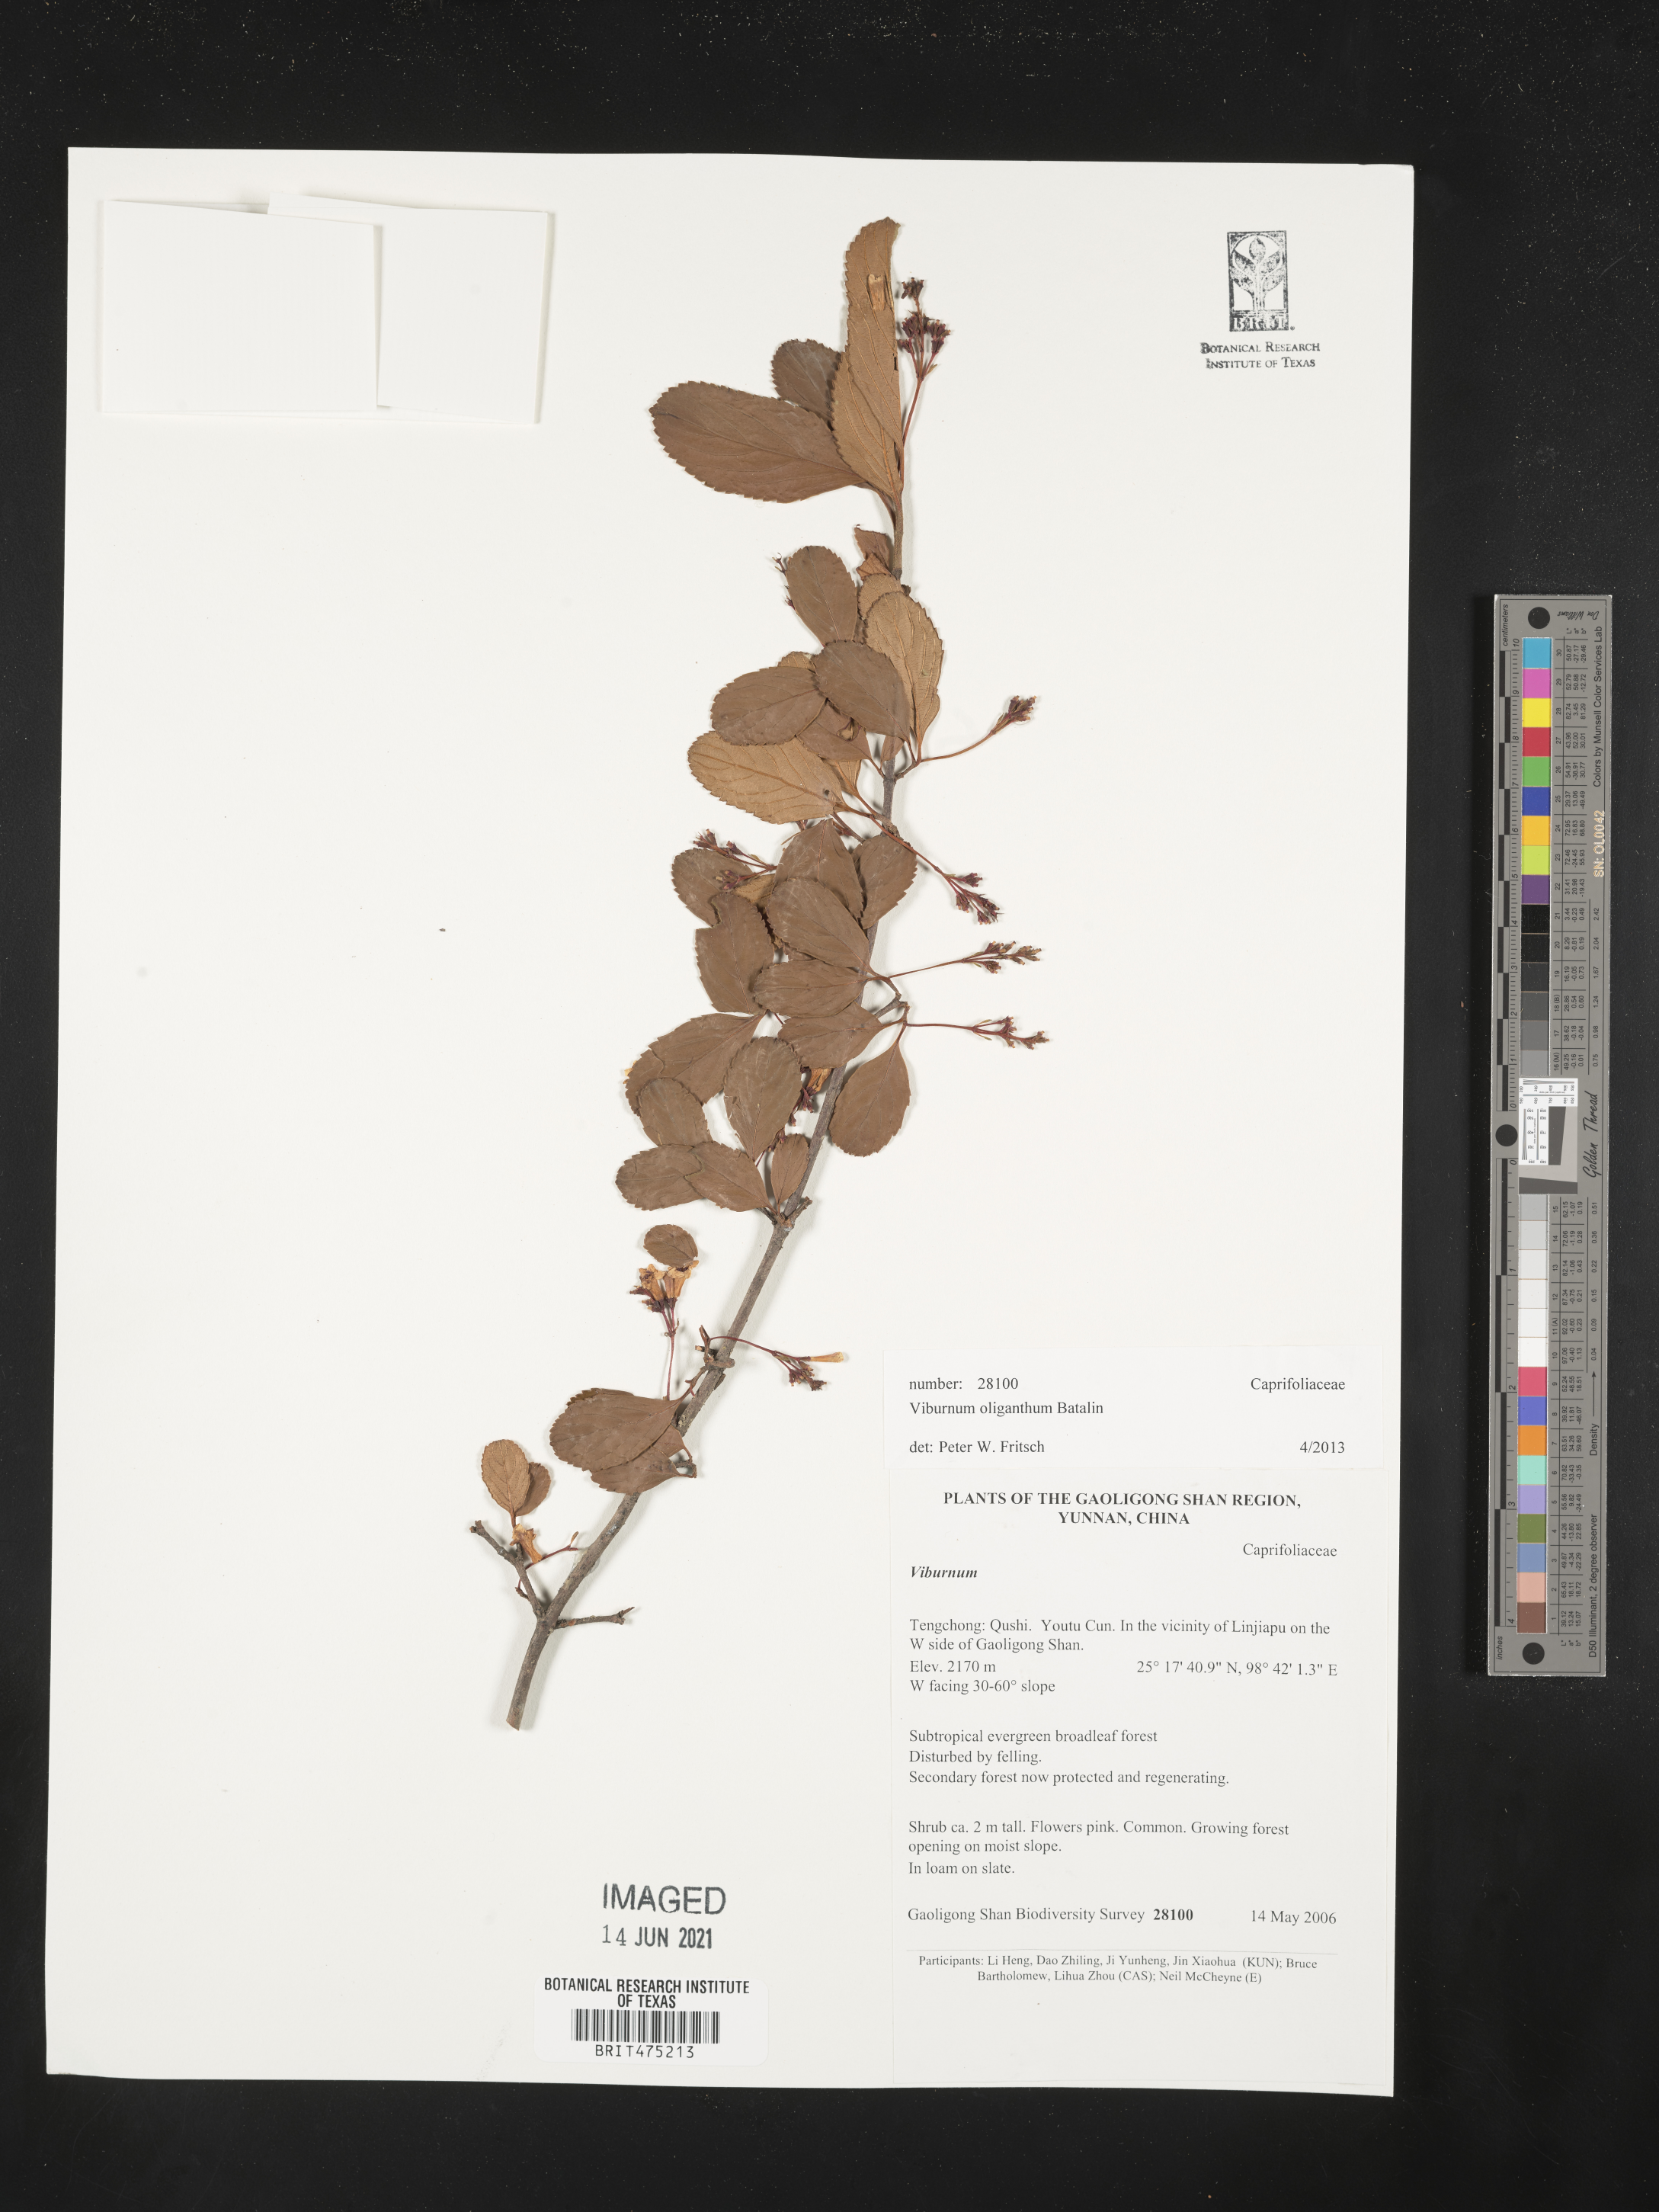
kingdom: Plantae
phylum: Tracheophyta
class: Magnoliopsida
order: Dipsacales
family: Viburnaceae
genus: Viburnum
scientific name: Viburnum oliganthum
